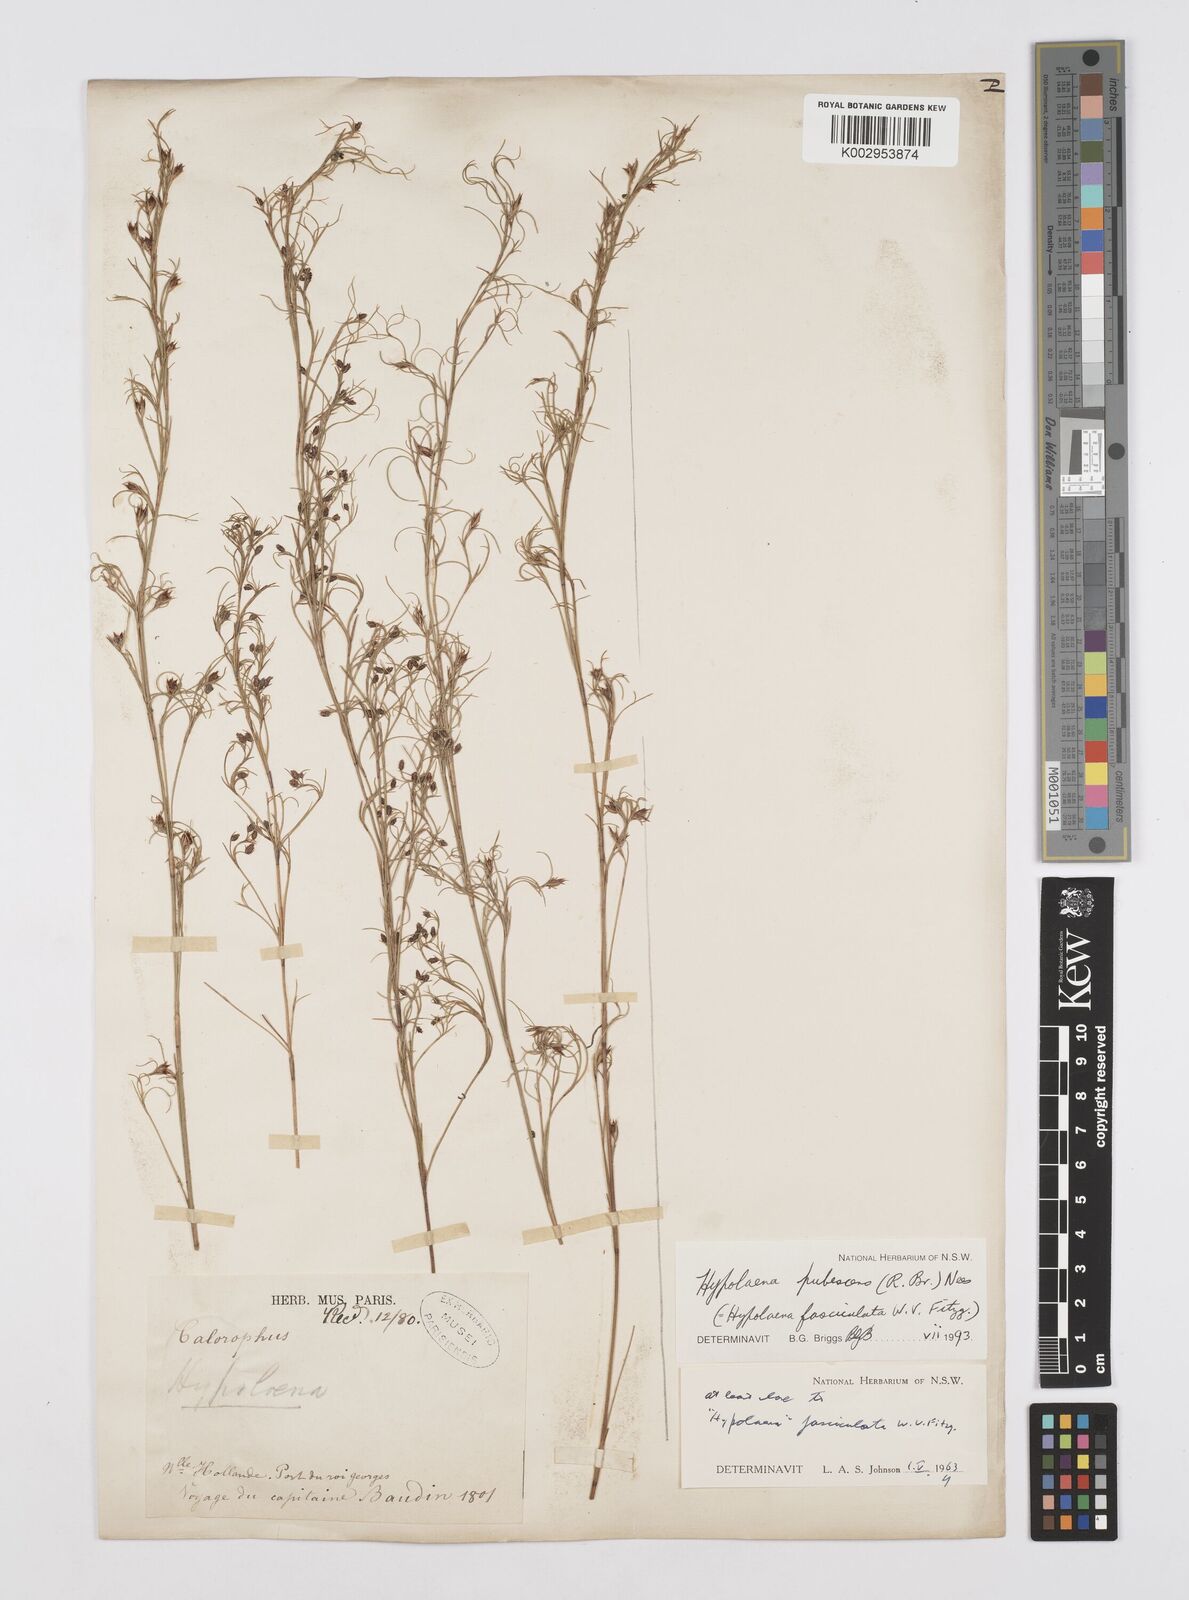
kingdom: Plantae
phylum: Tracheophyta
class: Liliopsida
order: Poales
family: Restionaceae
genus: Hypolaena
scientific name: Hypolaena pubescens
